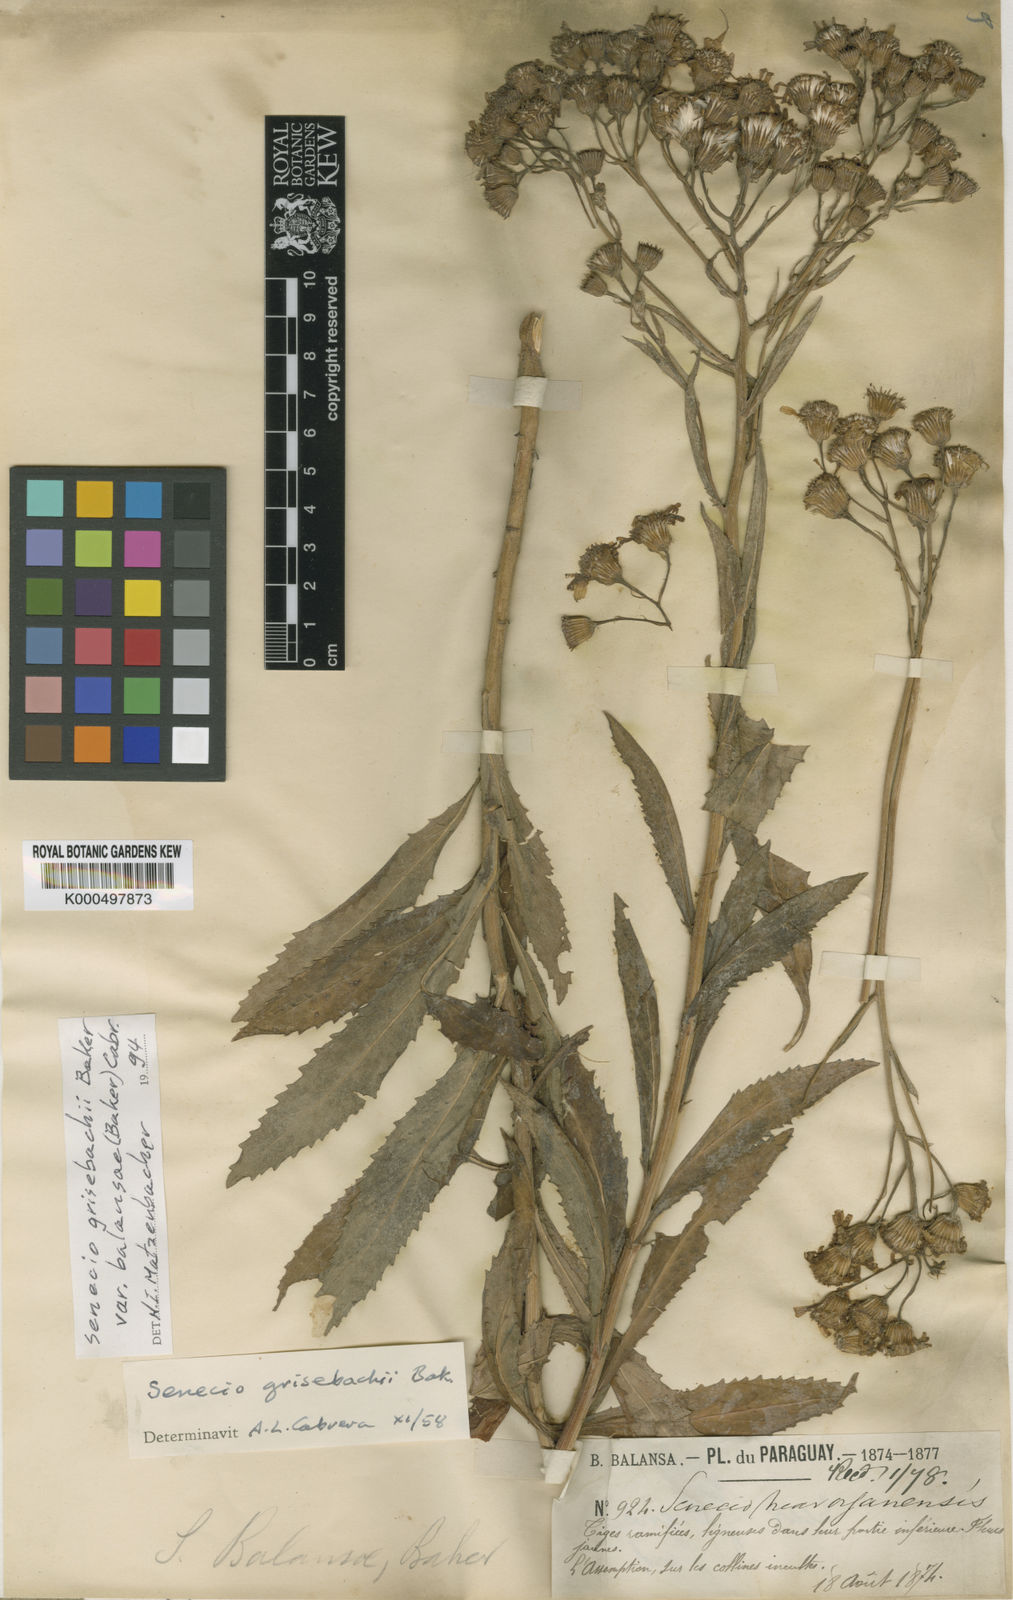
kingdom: Plantae
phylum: Tracheophyta
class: Magnoliopsida
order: Asterales
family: Asteraceae
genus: Senecio
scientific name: Senecio grisebachii
